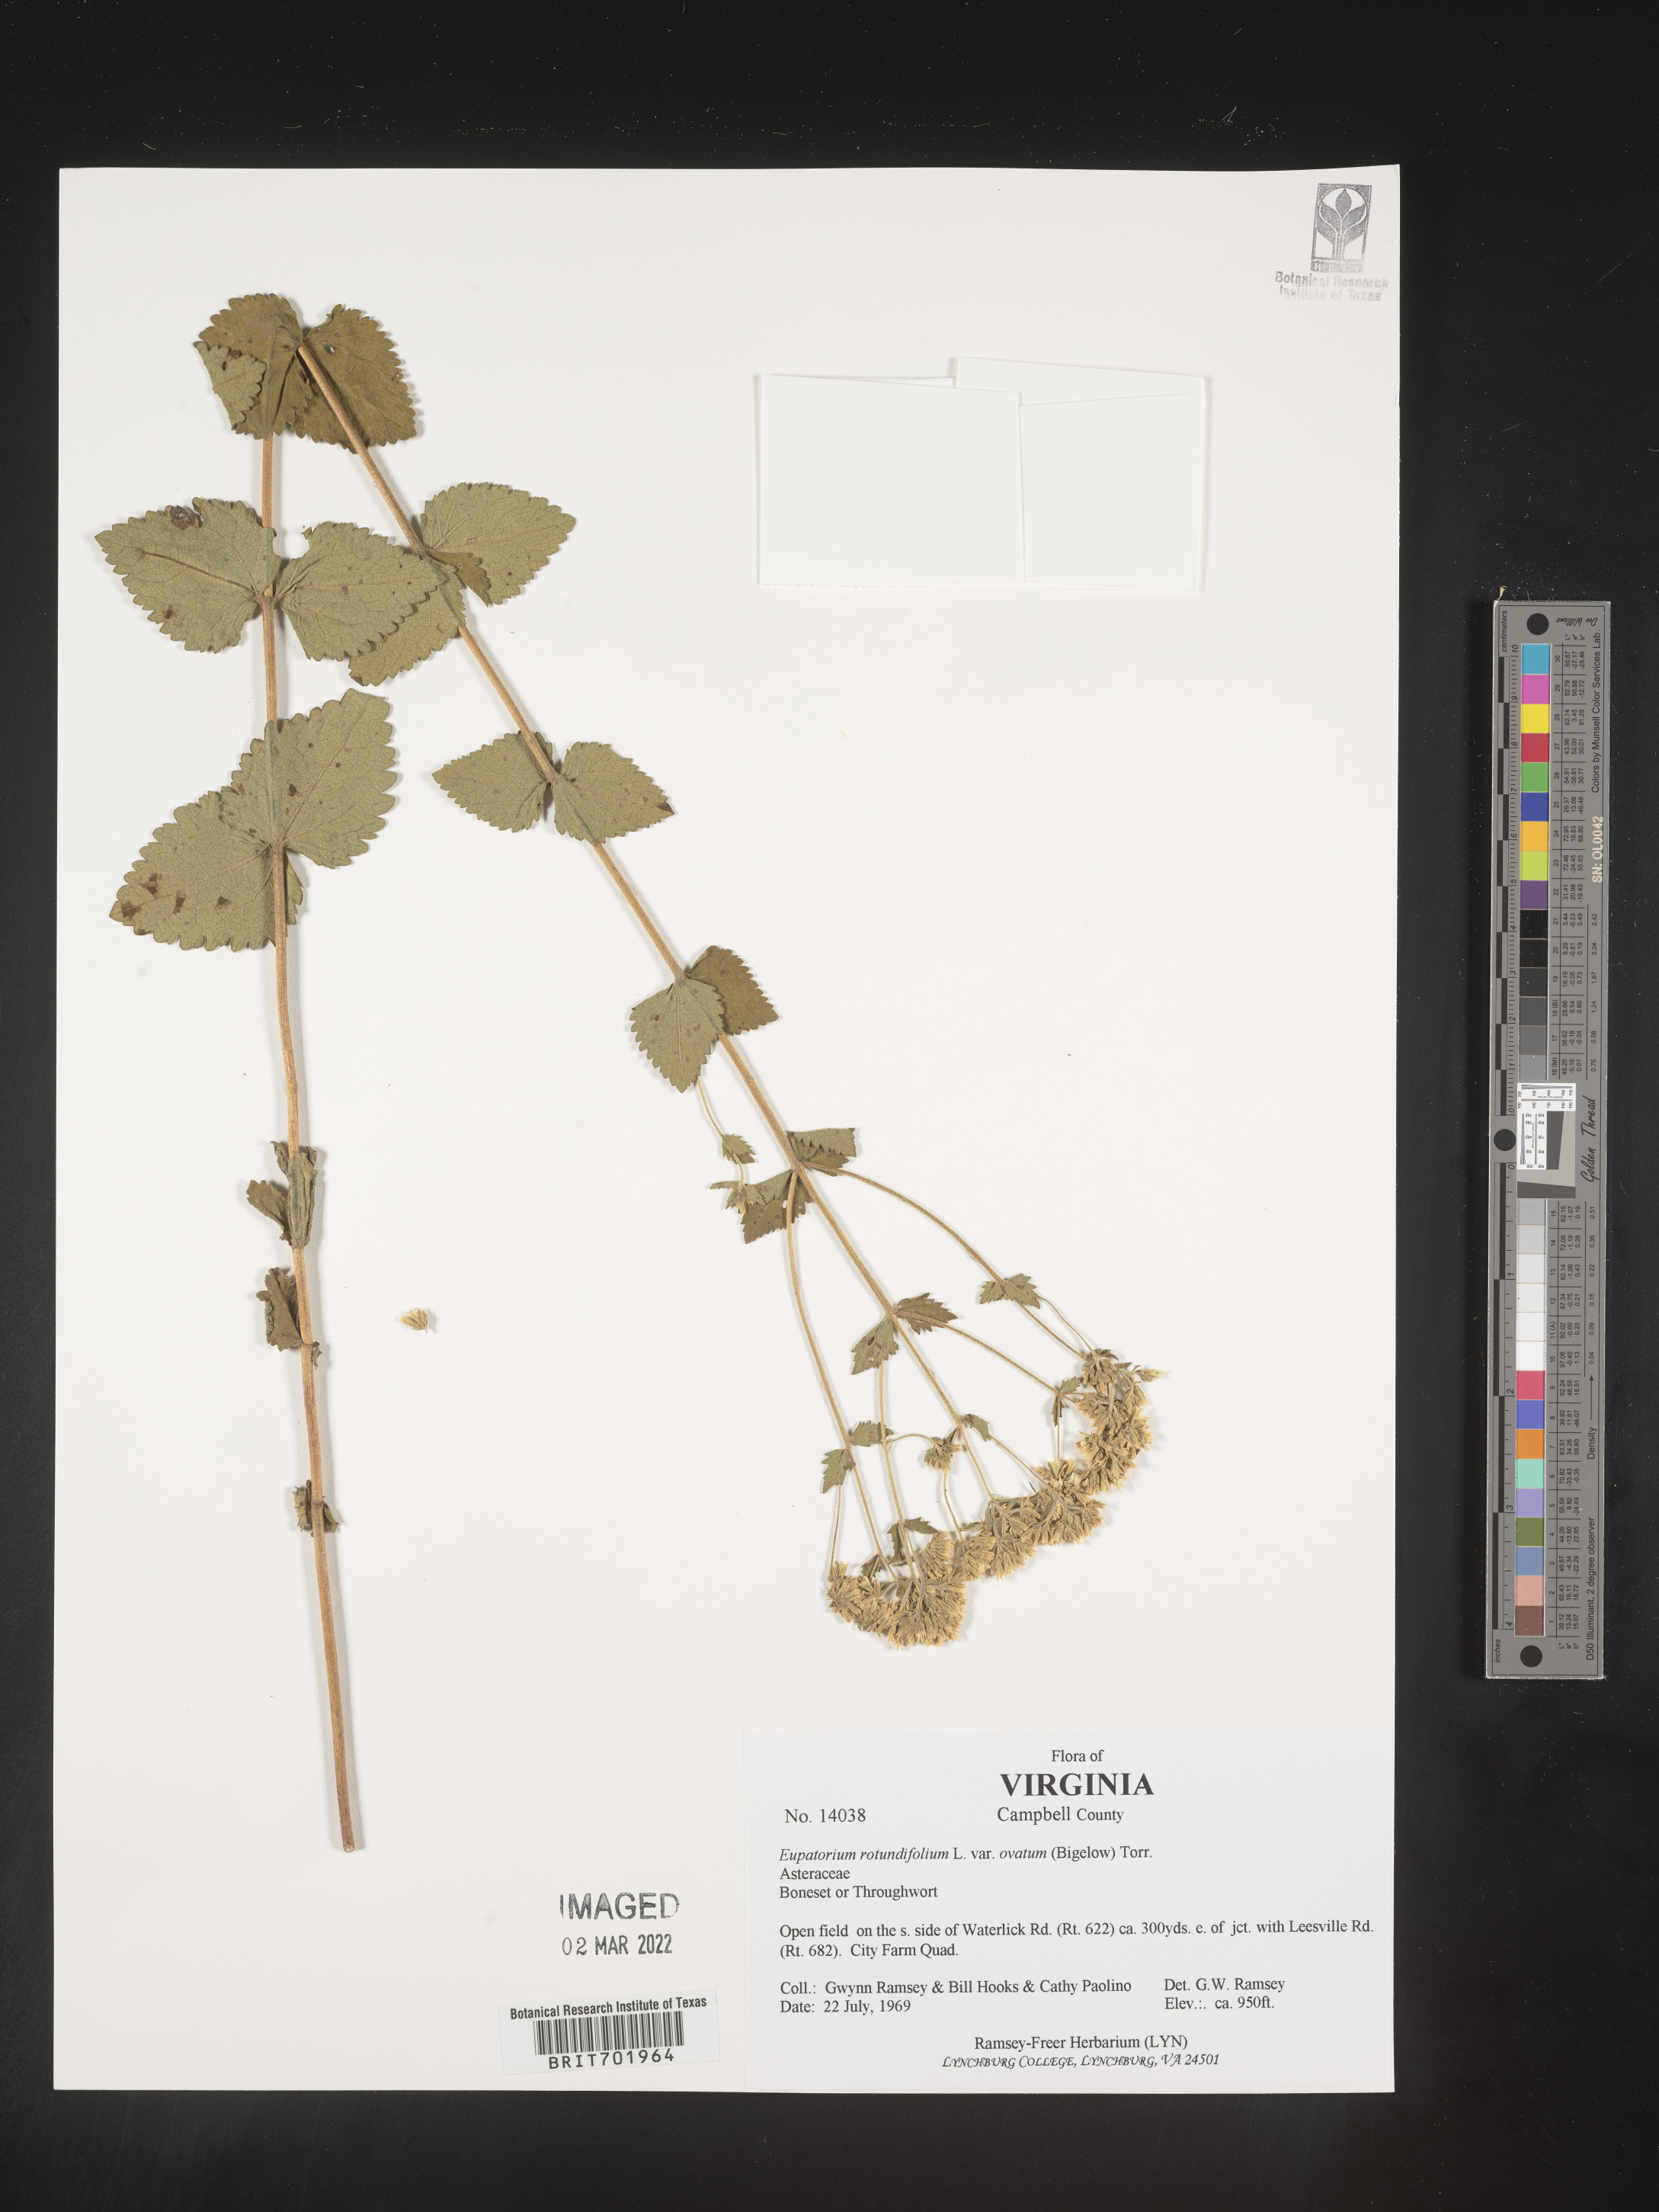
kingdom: Plantae
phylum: Tracheophyta
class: Magnoliopsida
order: Asterales
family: Asteraceae
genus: Eupatorium
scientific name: Eupatorium rotundifolium
